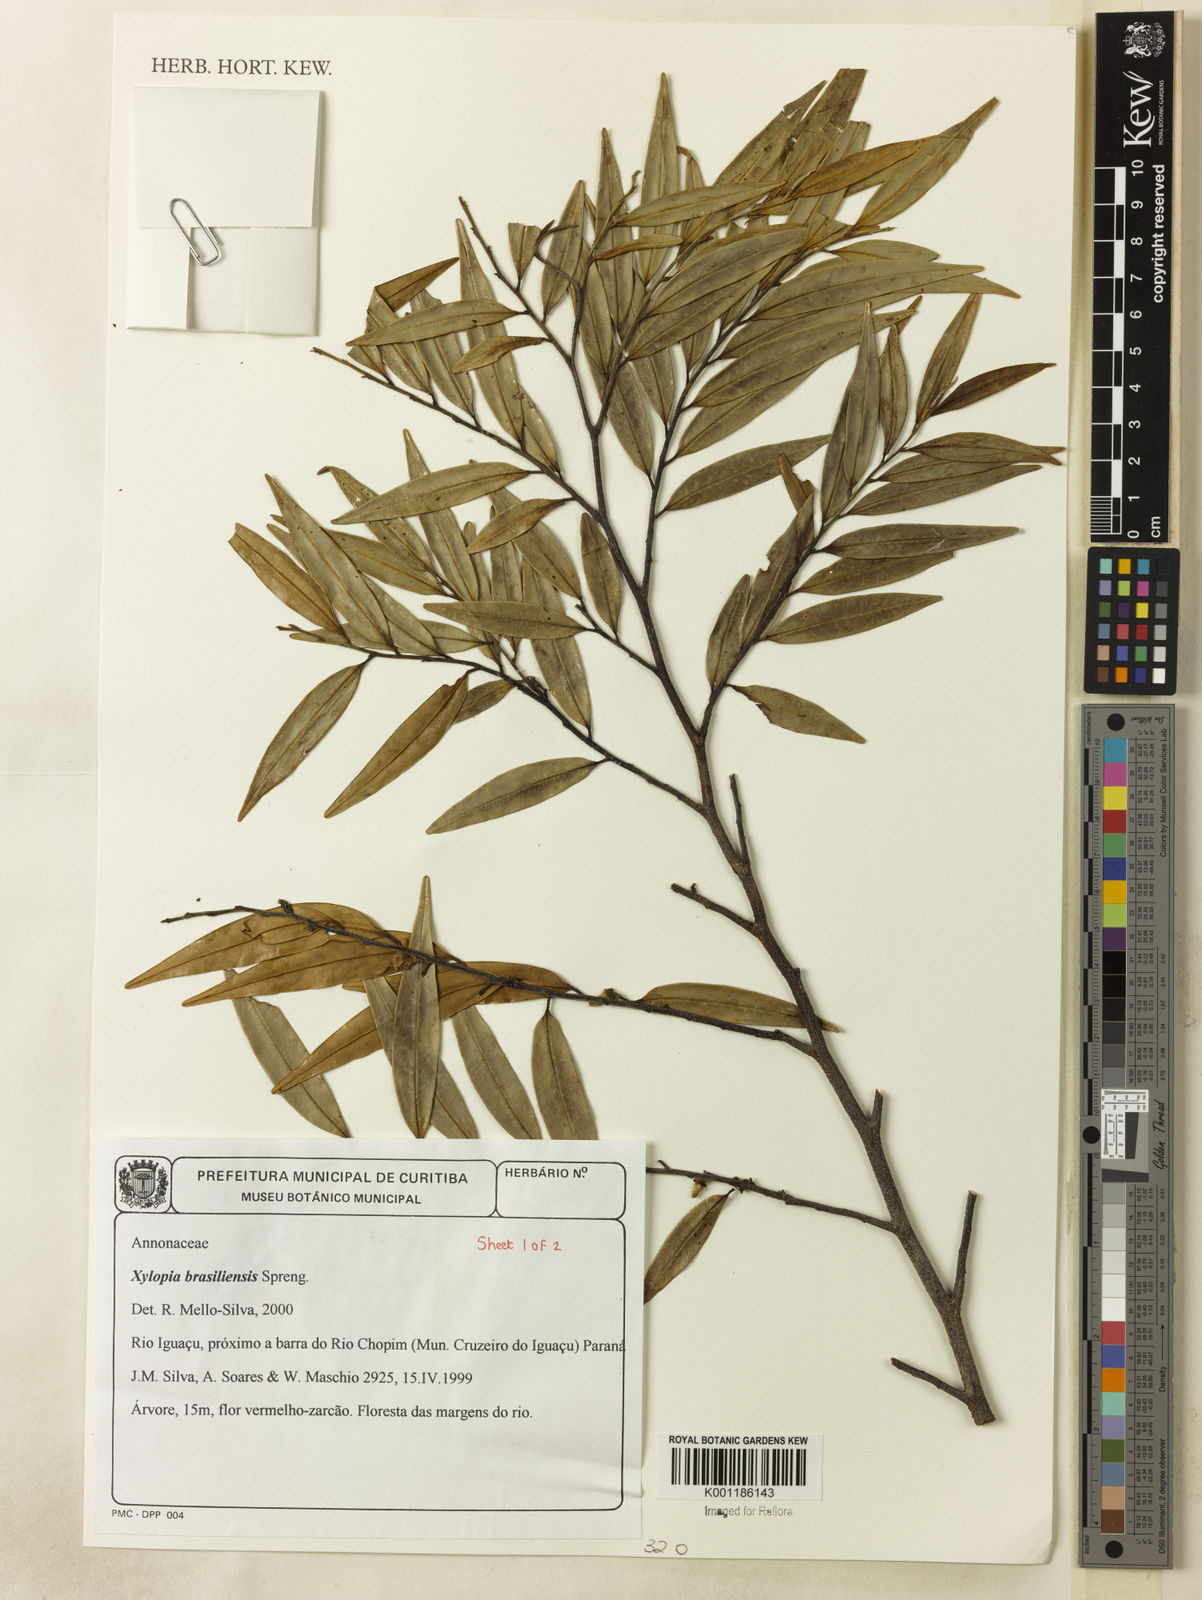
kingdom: Plantae
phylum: Tracheophyta
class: Magnoliopsida
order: Magnoliales
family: Annonaceae
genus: Xylopia
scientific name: Xylopia brasiliensis
